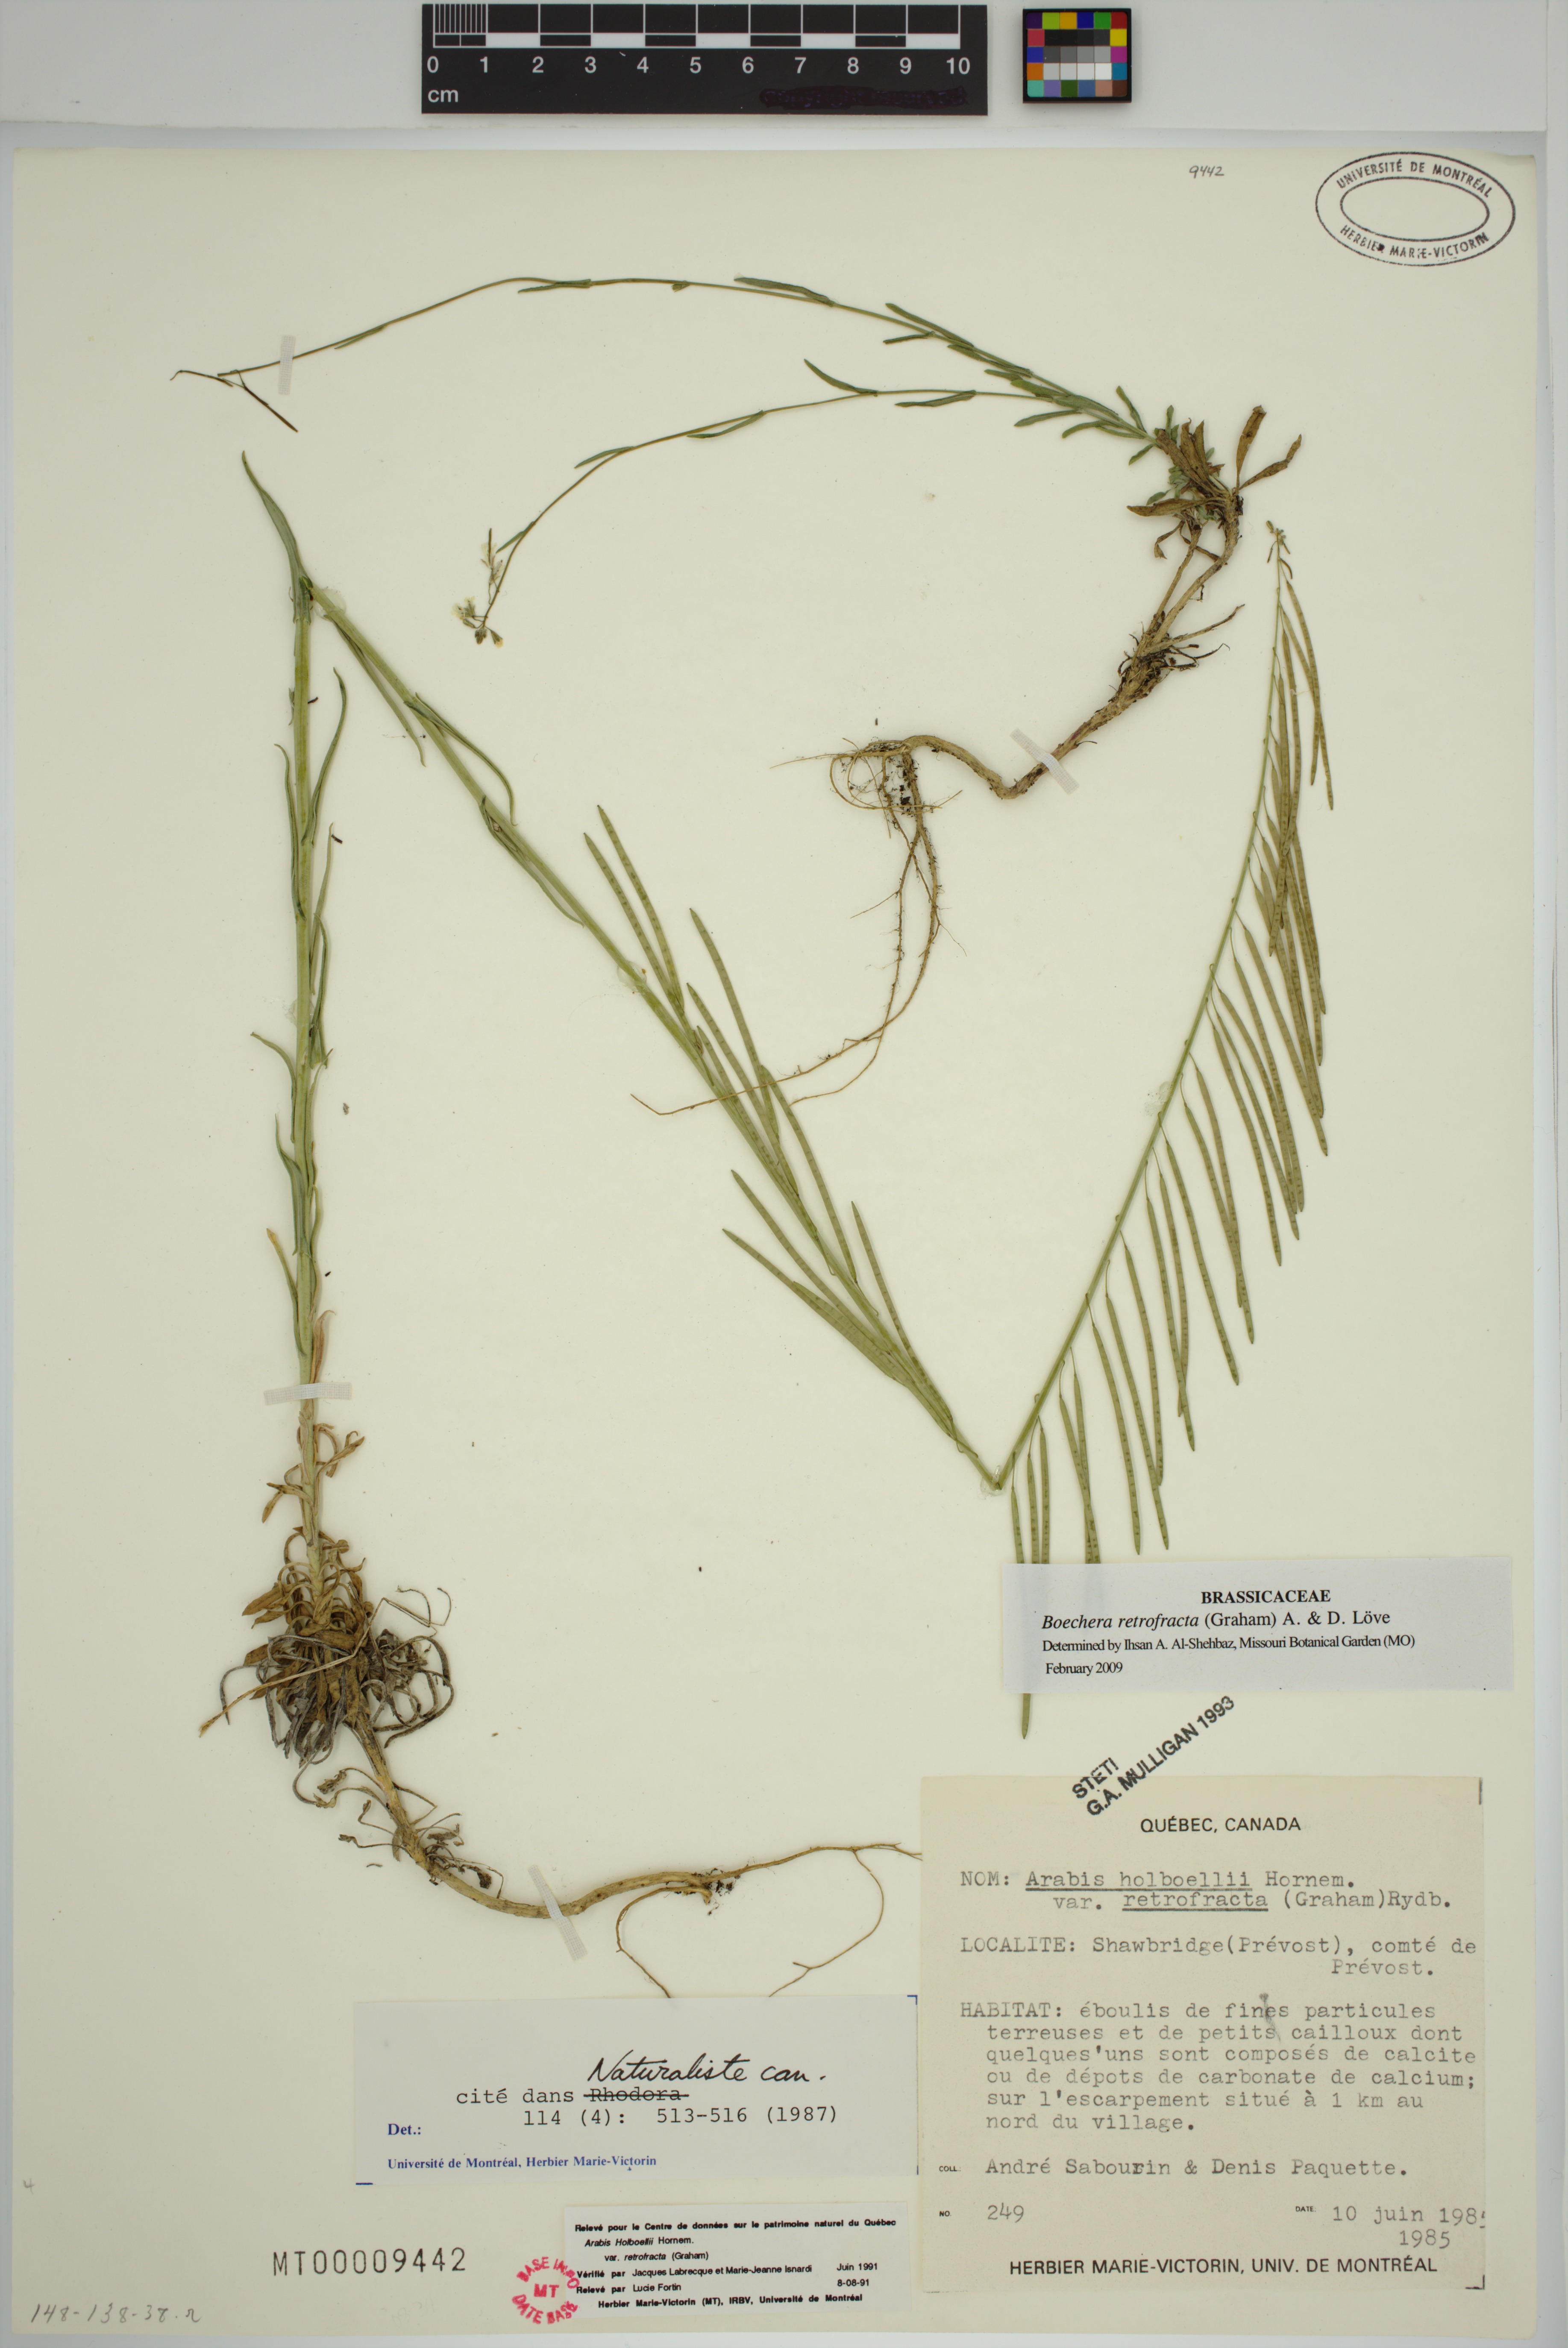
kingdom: Plantae
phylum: Tracheophyta
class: Magnoliopsida
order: Brassicales
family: Brassicaceae
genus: Boechera
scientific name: Boechera retrofracta
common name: Dangling suncress
